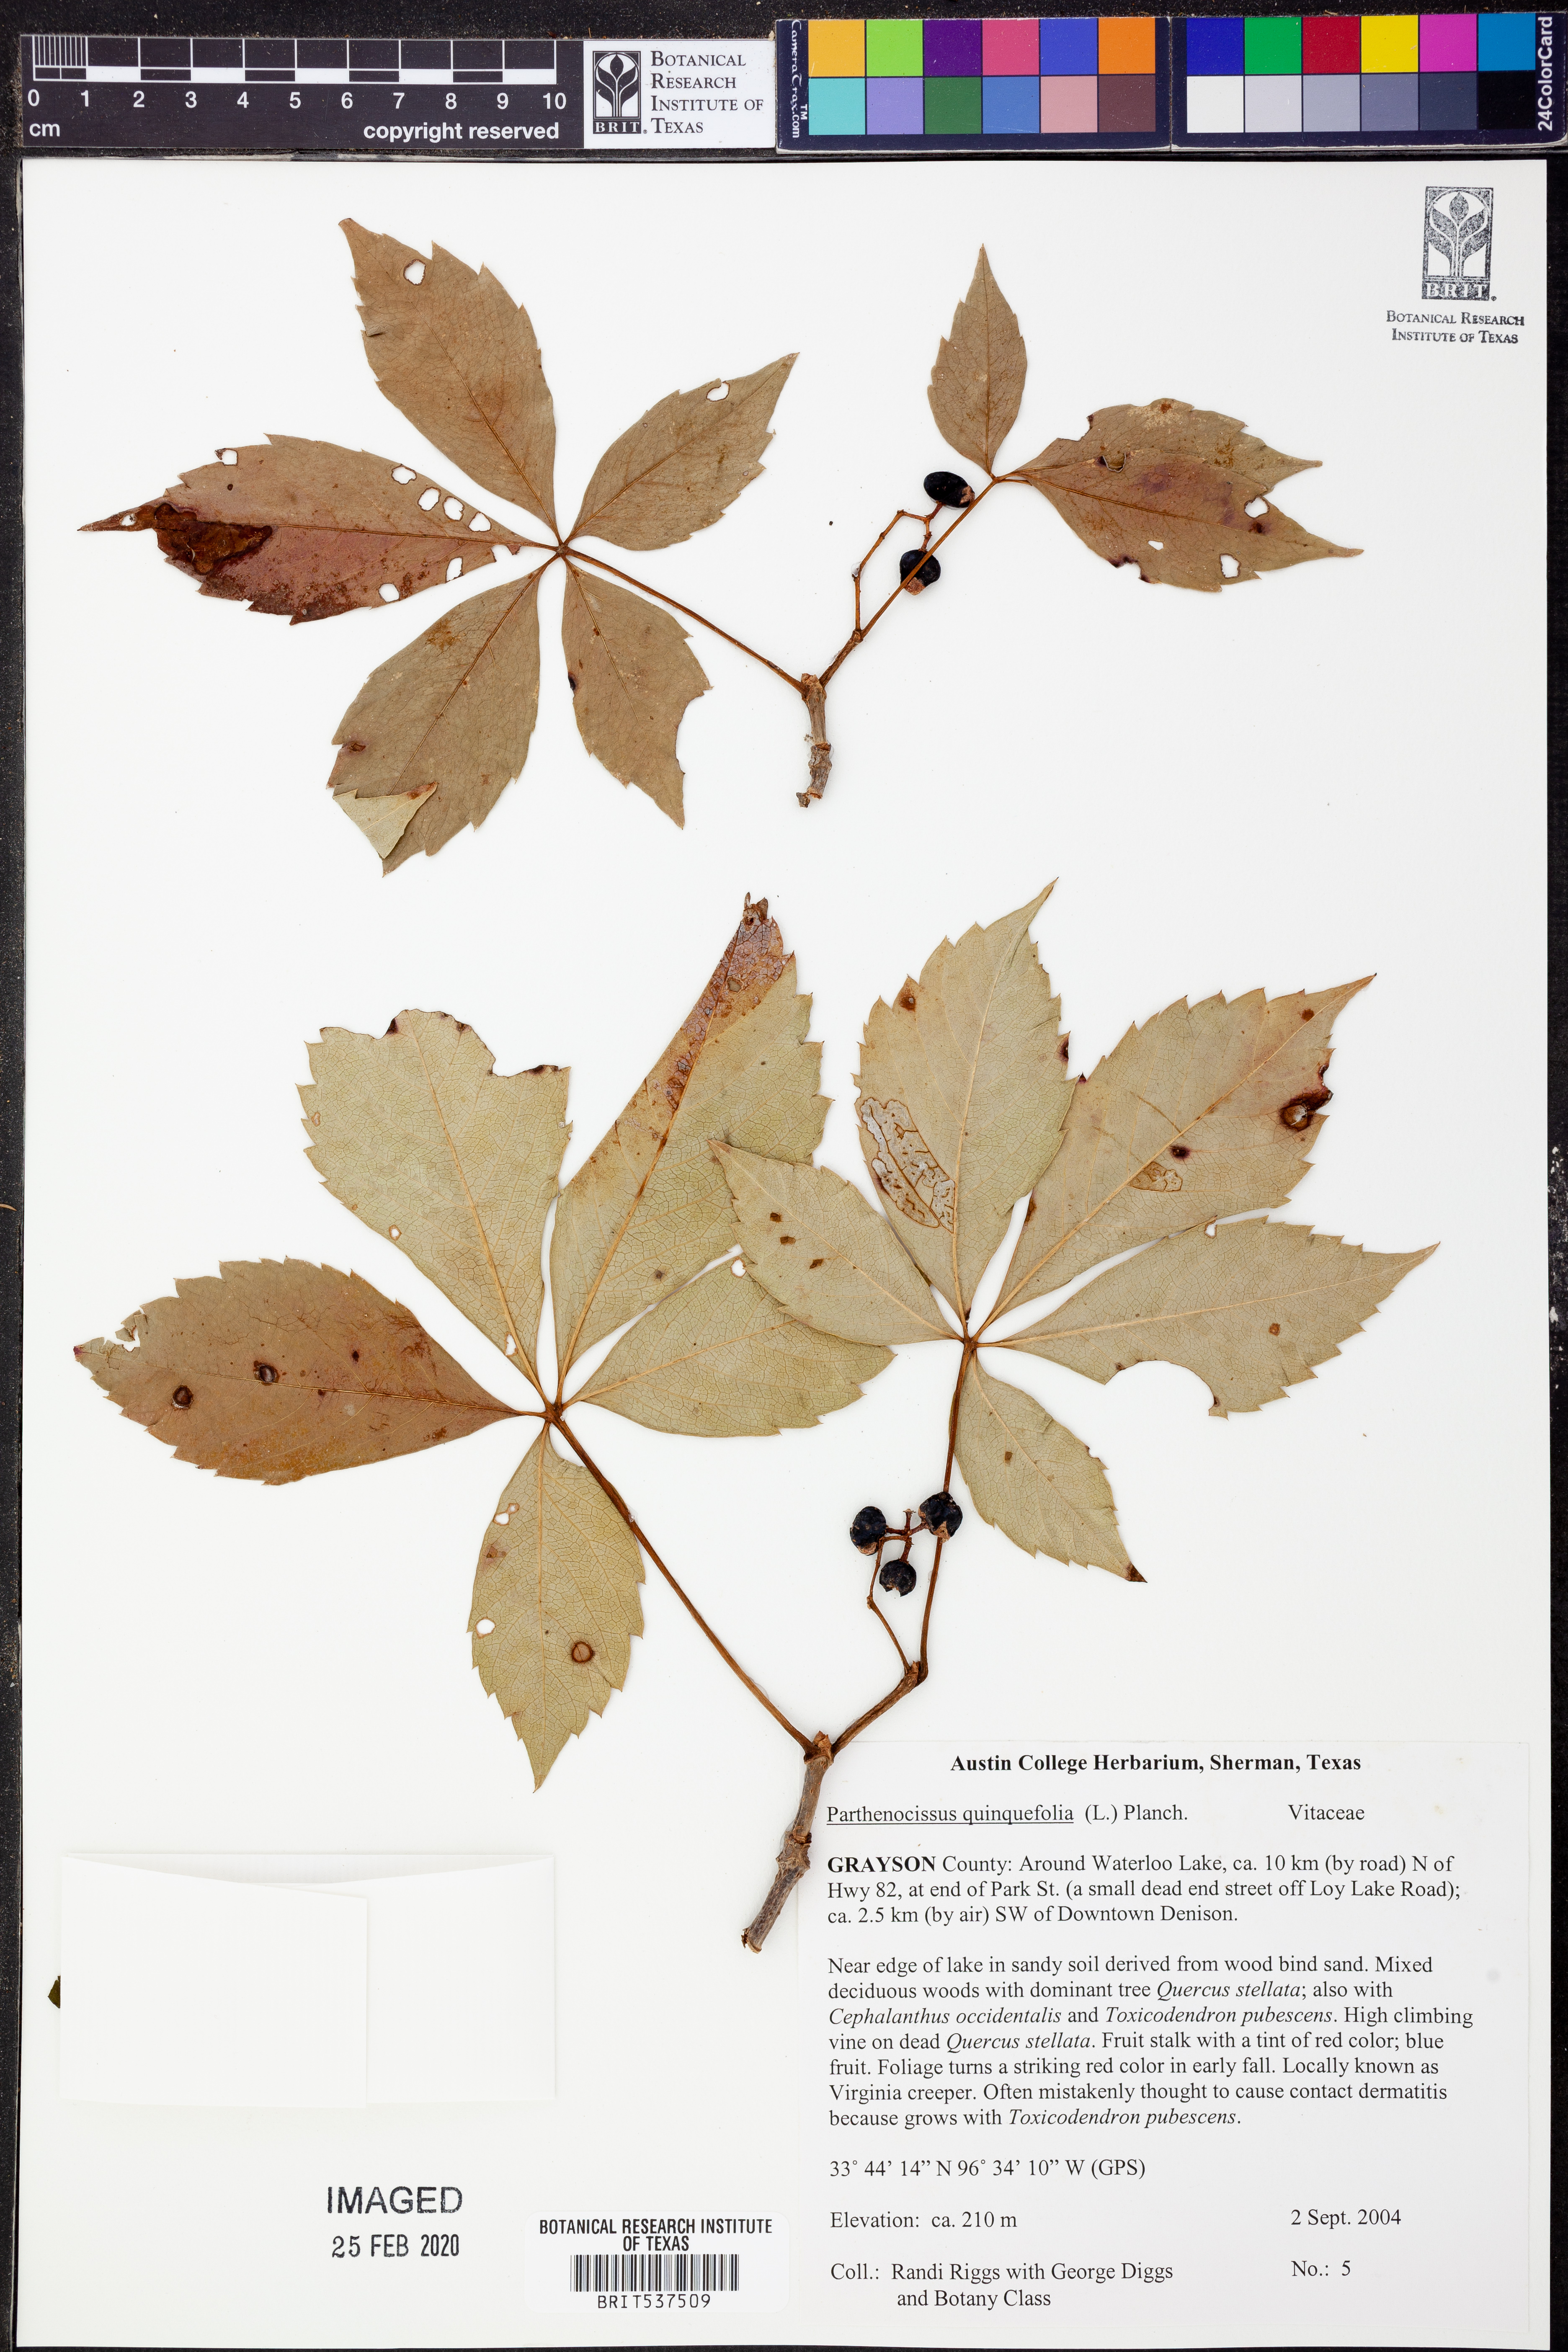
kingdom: Plantae
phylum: Tracheophyta
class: Magnoliopsida
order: Vitales
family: Vitaceae
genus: Parthenocissus
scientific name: Parthenocissus quinquefolia
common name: Virginia-creeper
